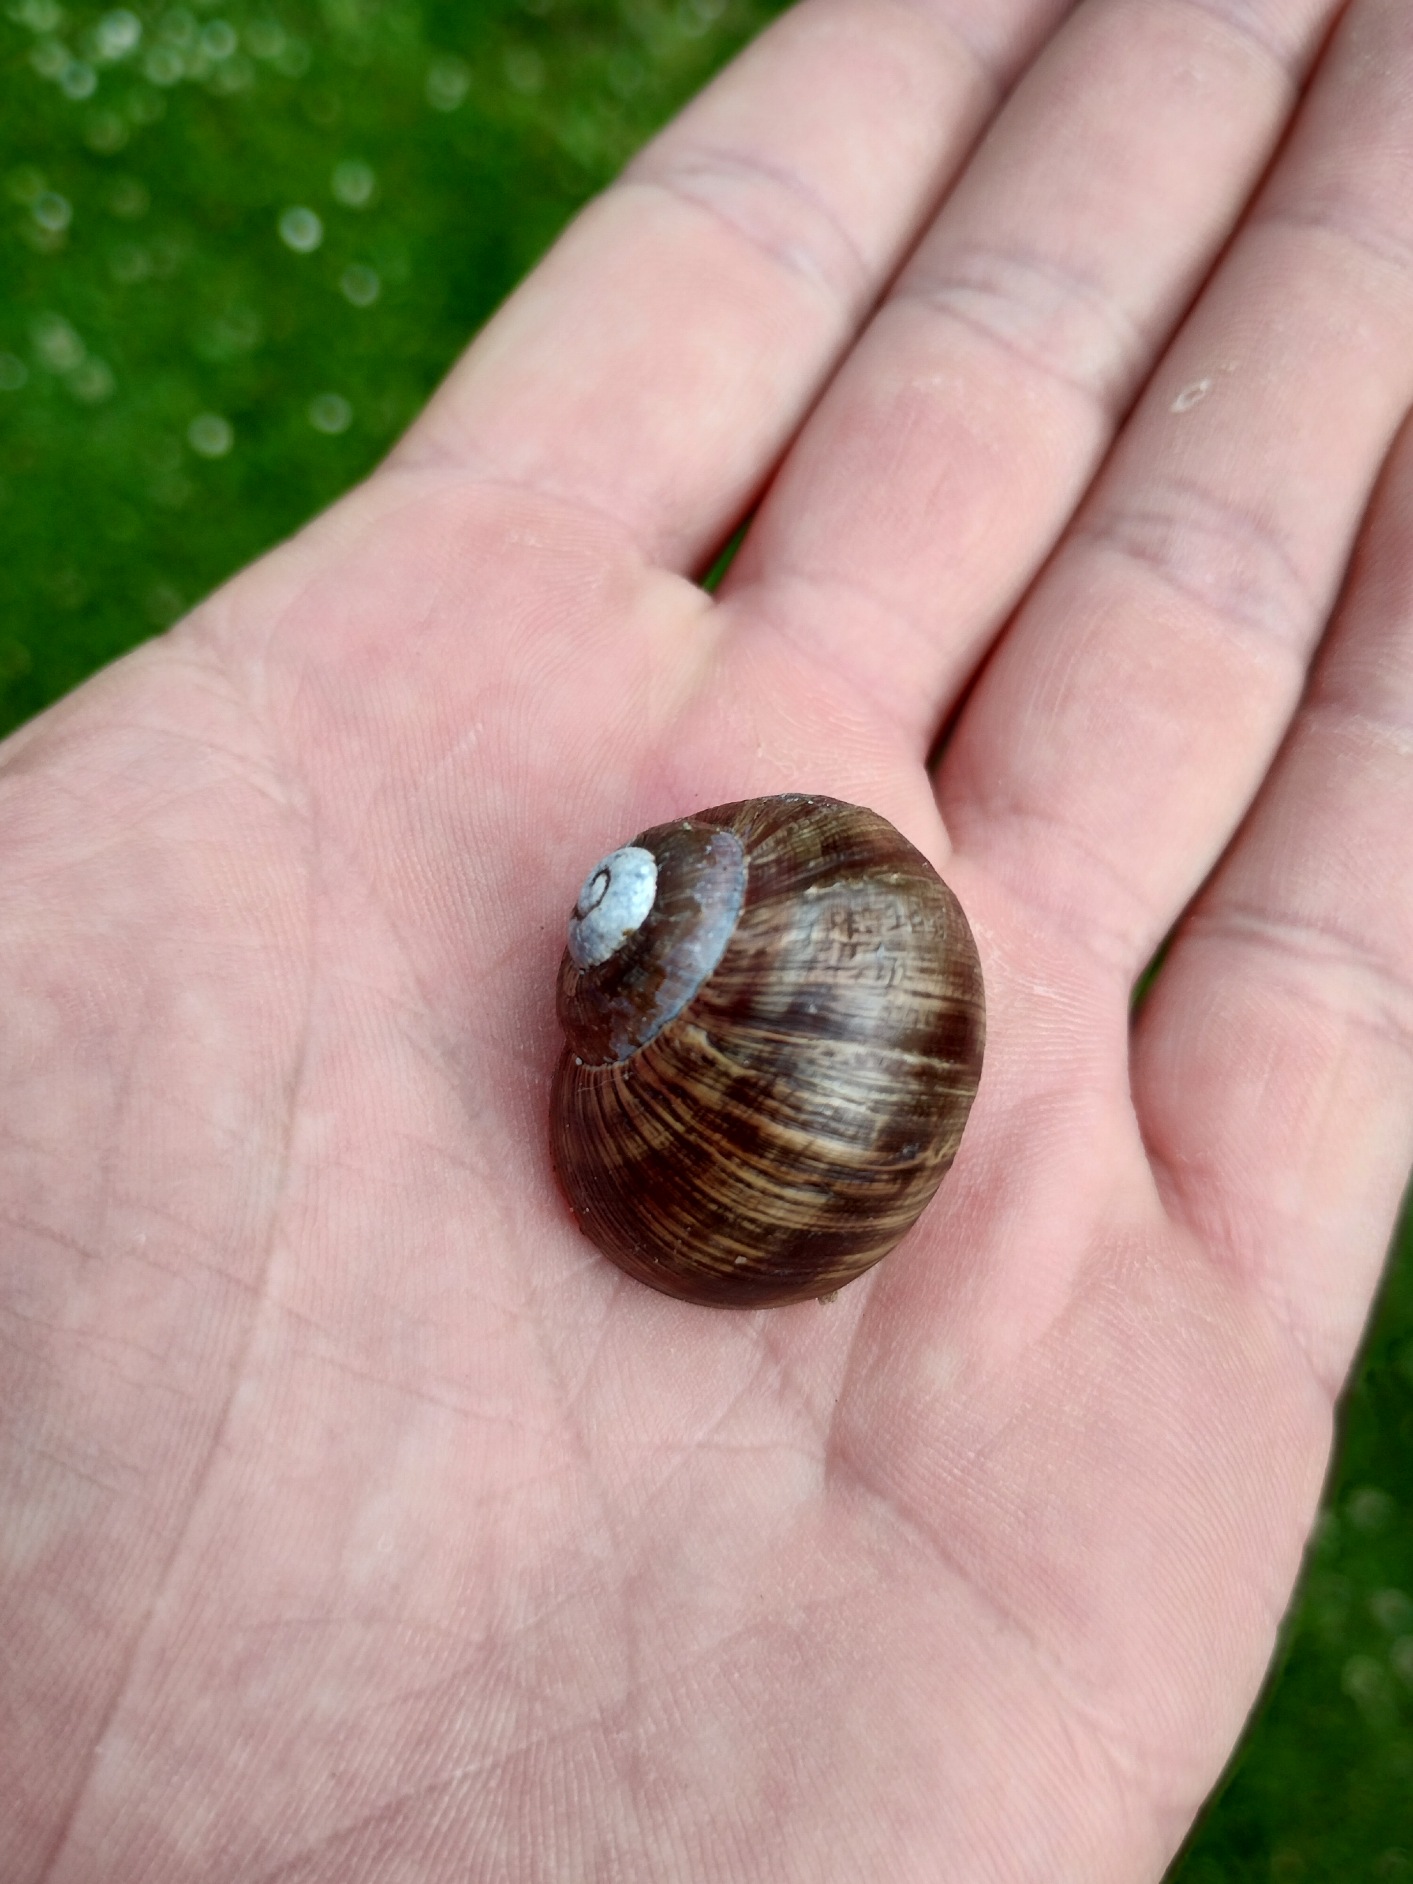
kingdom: Animalia
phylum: Mollusca
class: Gastropoda
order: Stylommatophora
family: Helicidae
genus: Helix
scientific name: Helix pomatia
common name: Vinbjergsnegl
